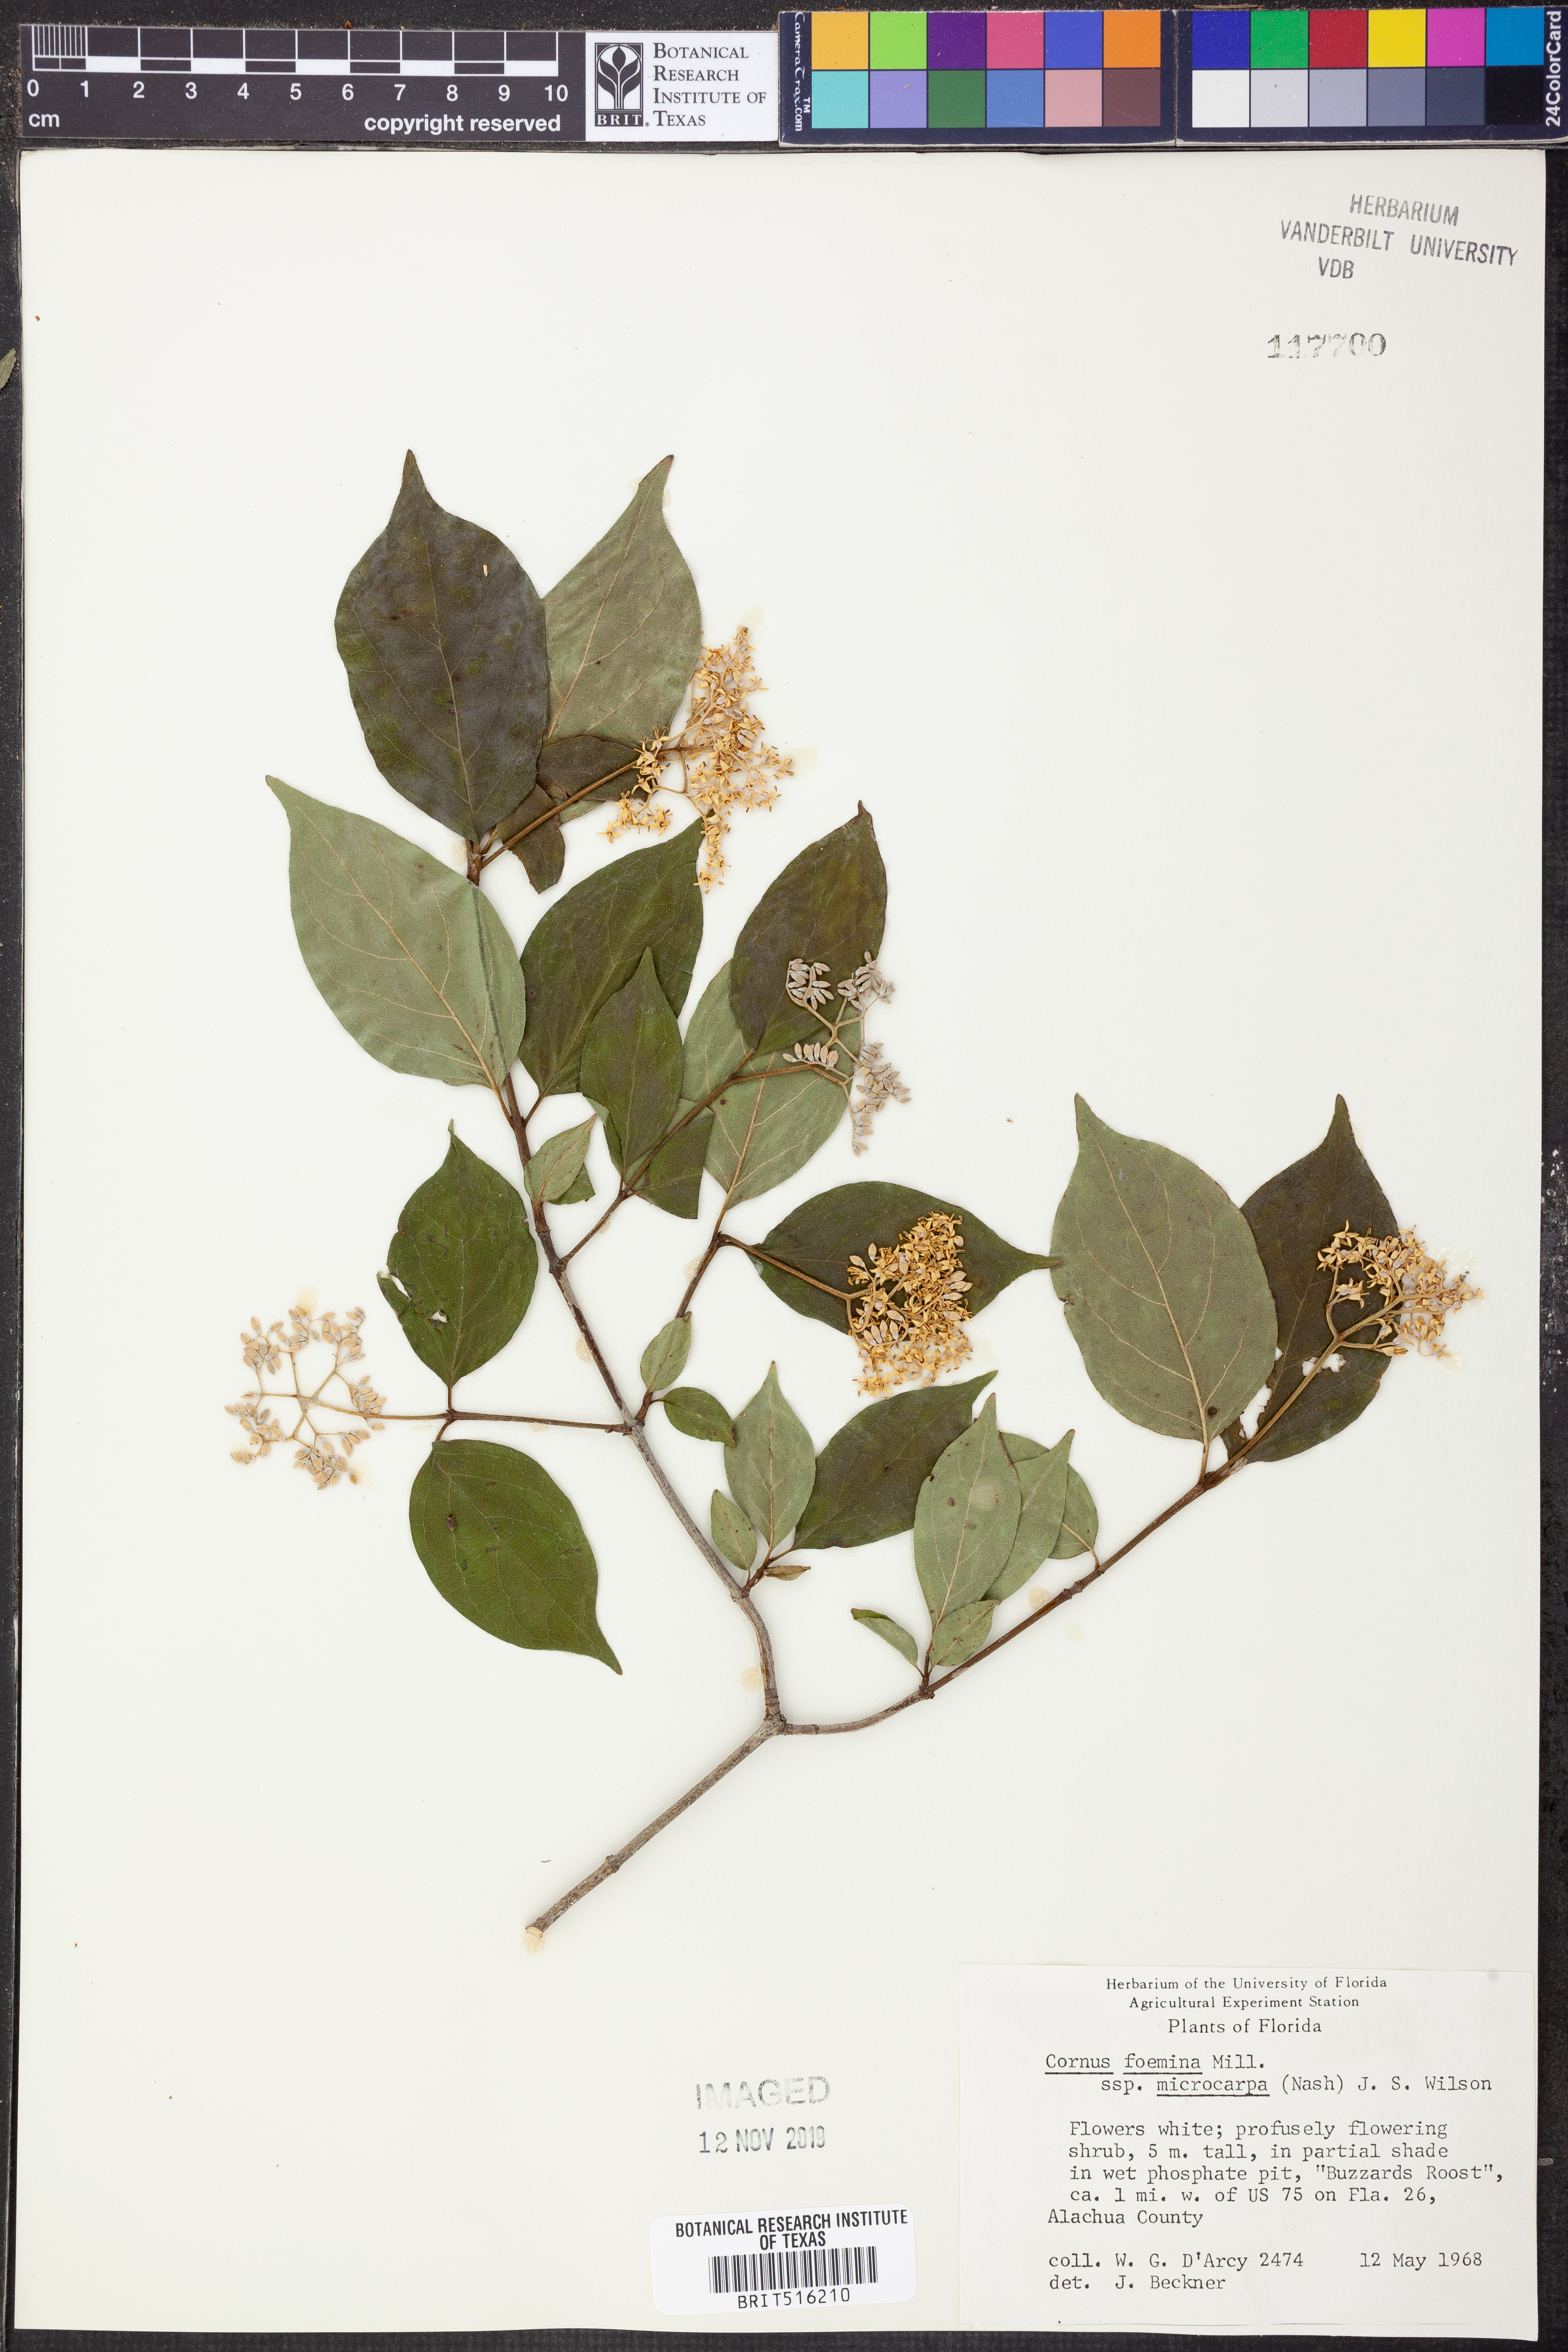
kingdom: Plantae
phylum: Tracheophyta
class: Magnoliopsida
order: Cornales
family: Cornaceae
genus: Cornus
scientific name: Cornus asperifolia
